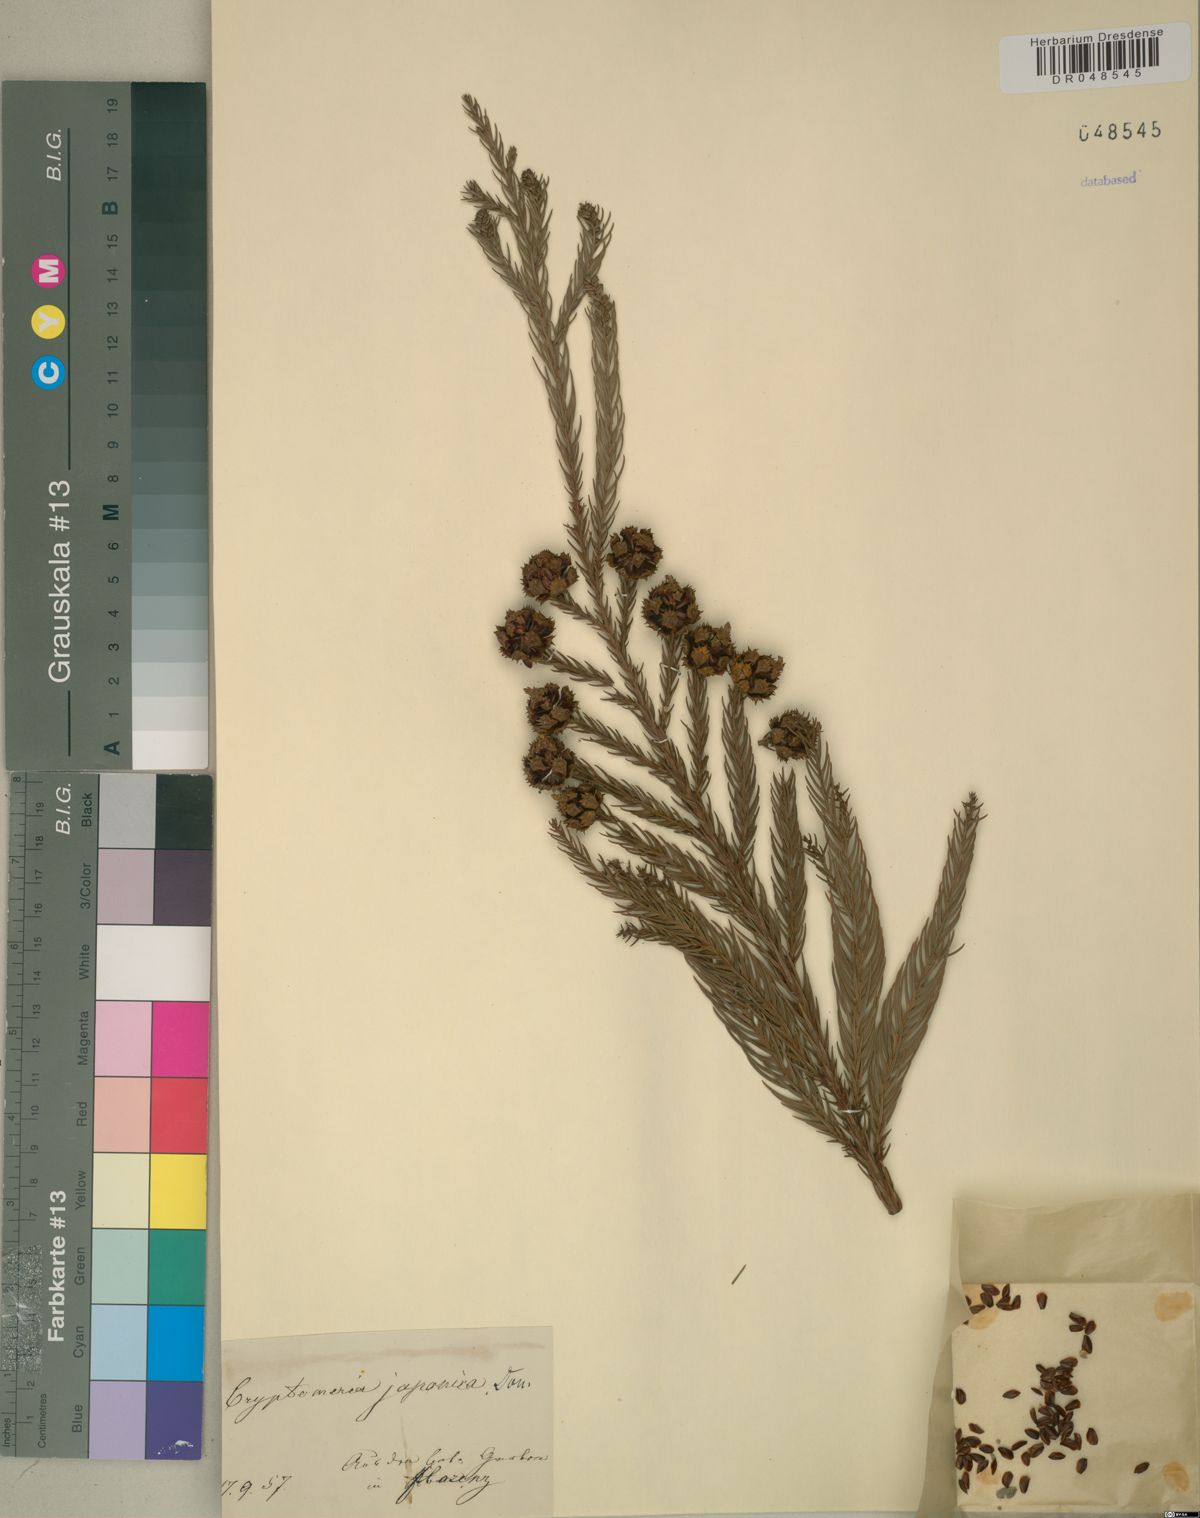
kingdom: Plantae
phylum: Tracheophyta
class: Pinopsida
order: Pinales
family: Cupressaceae
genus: Cryptomeria
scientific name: Cryptomeria japonica
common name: Japanese cedar
